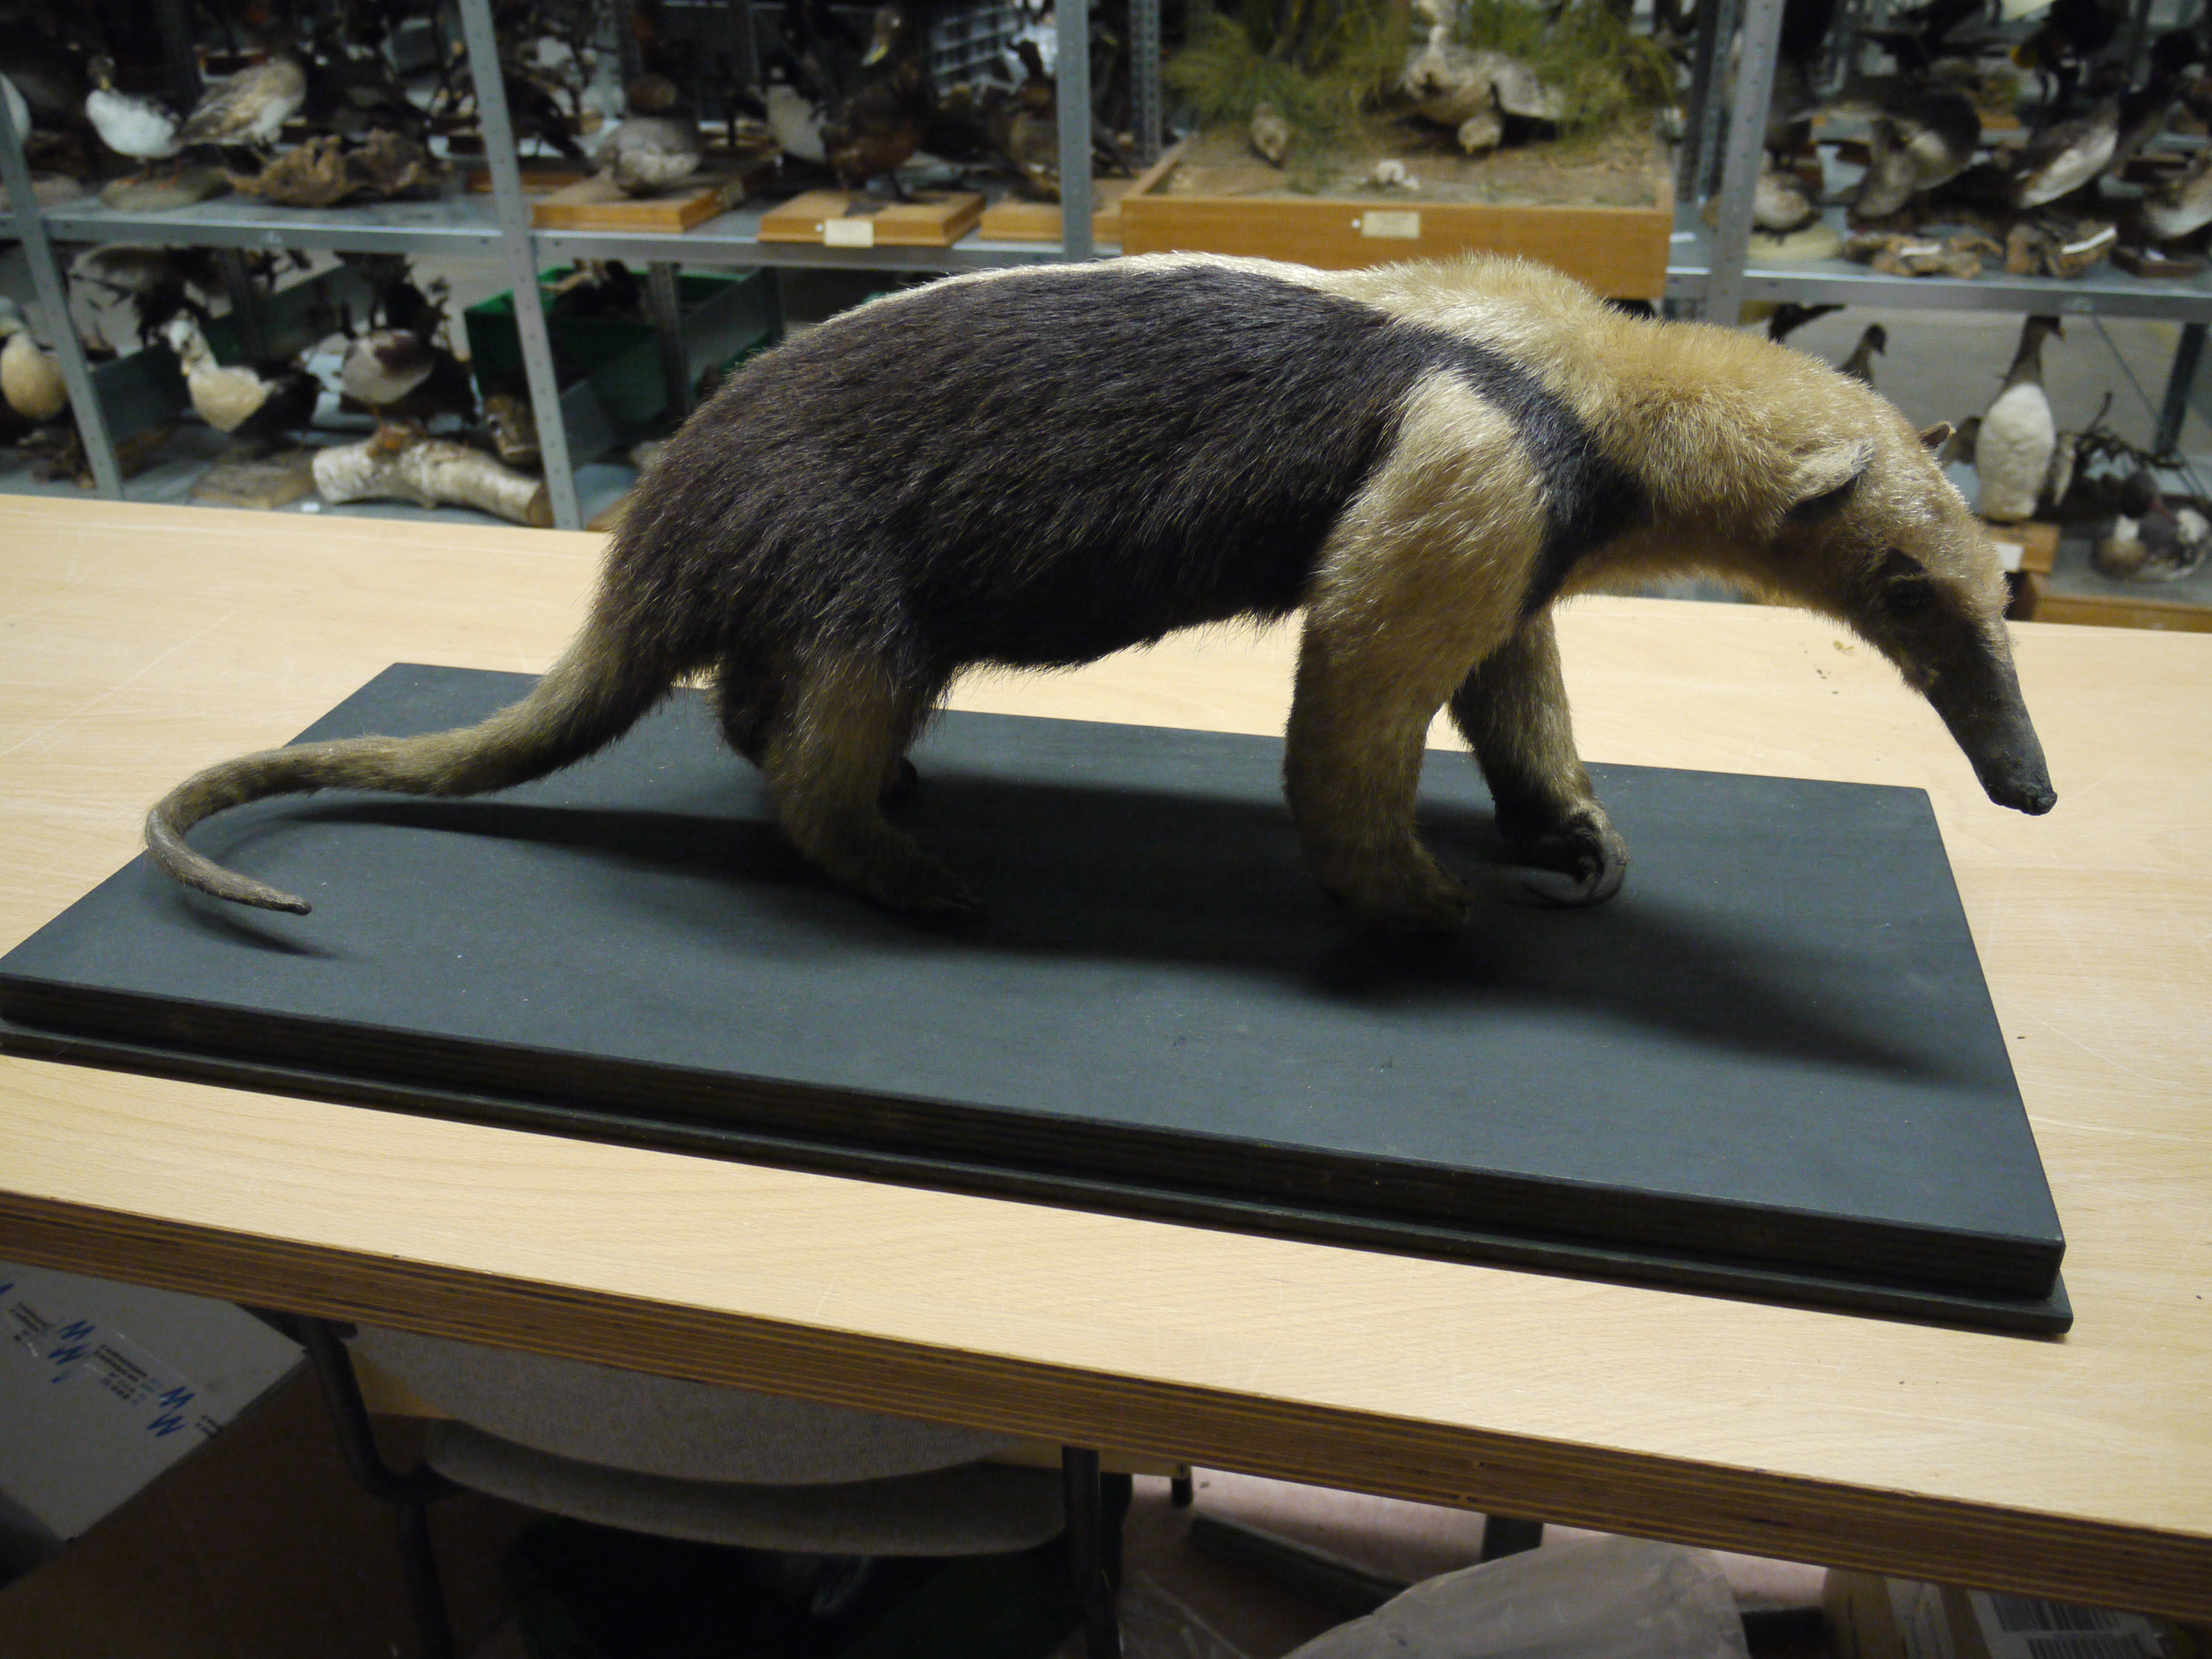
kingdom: Animalia
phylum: Chordata
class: Mammalia
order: Pilosa
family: Myrmecophagidae
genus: Tamandua
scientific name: Tamandua tetradactyla
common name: Southern tamandua
